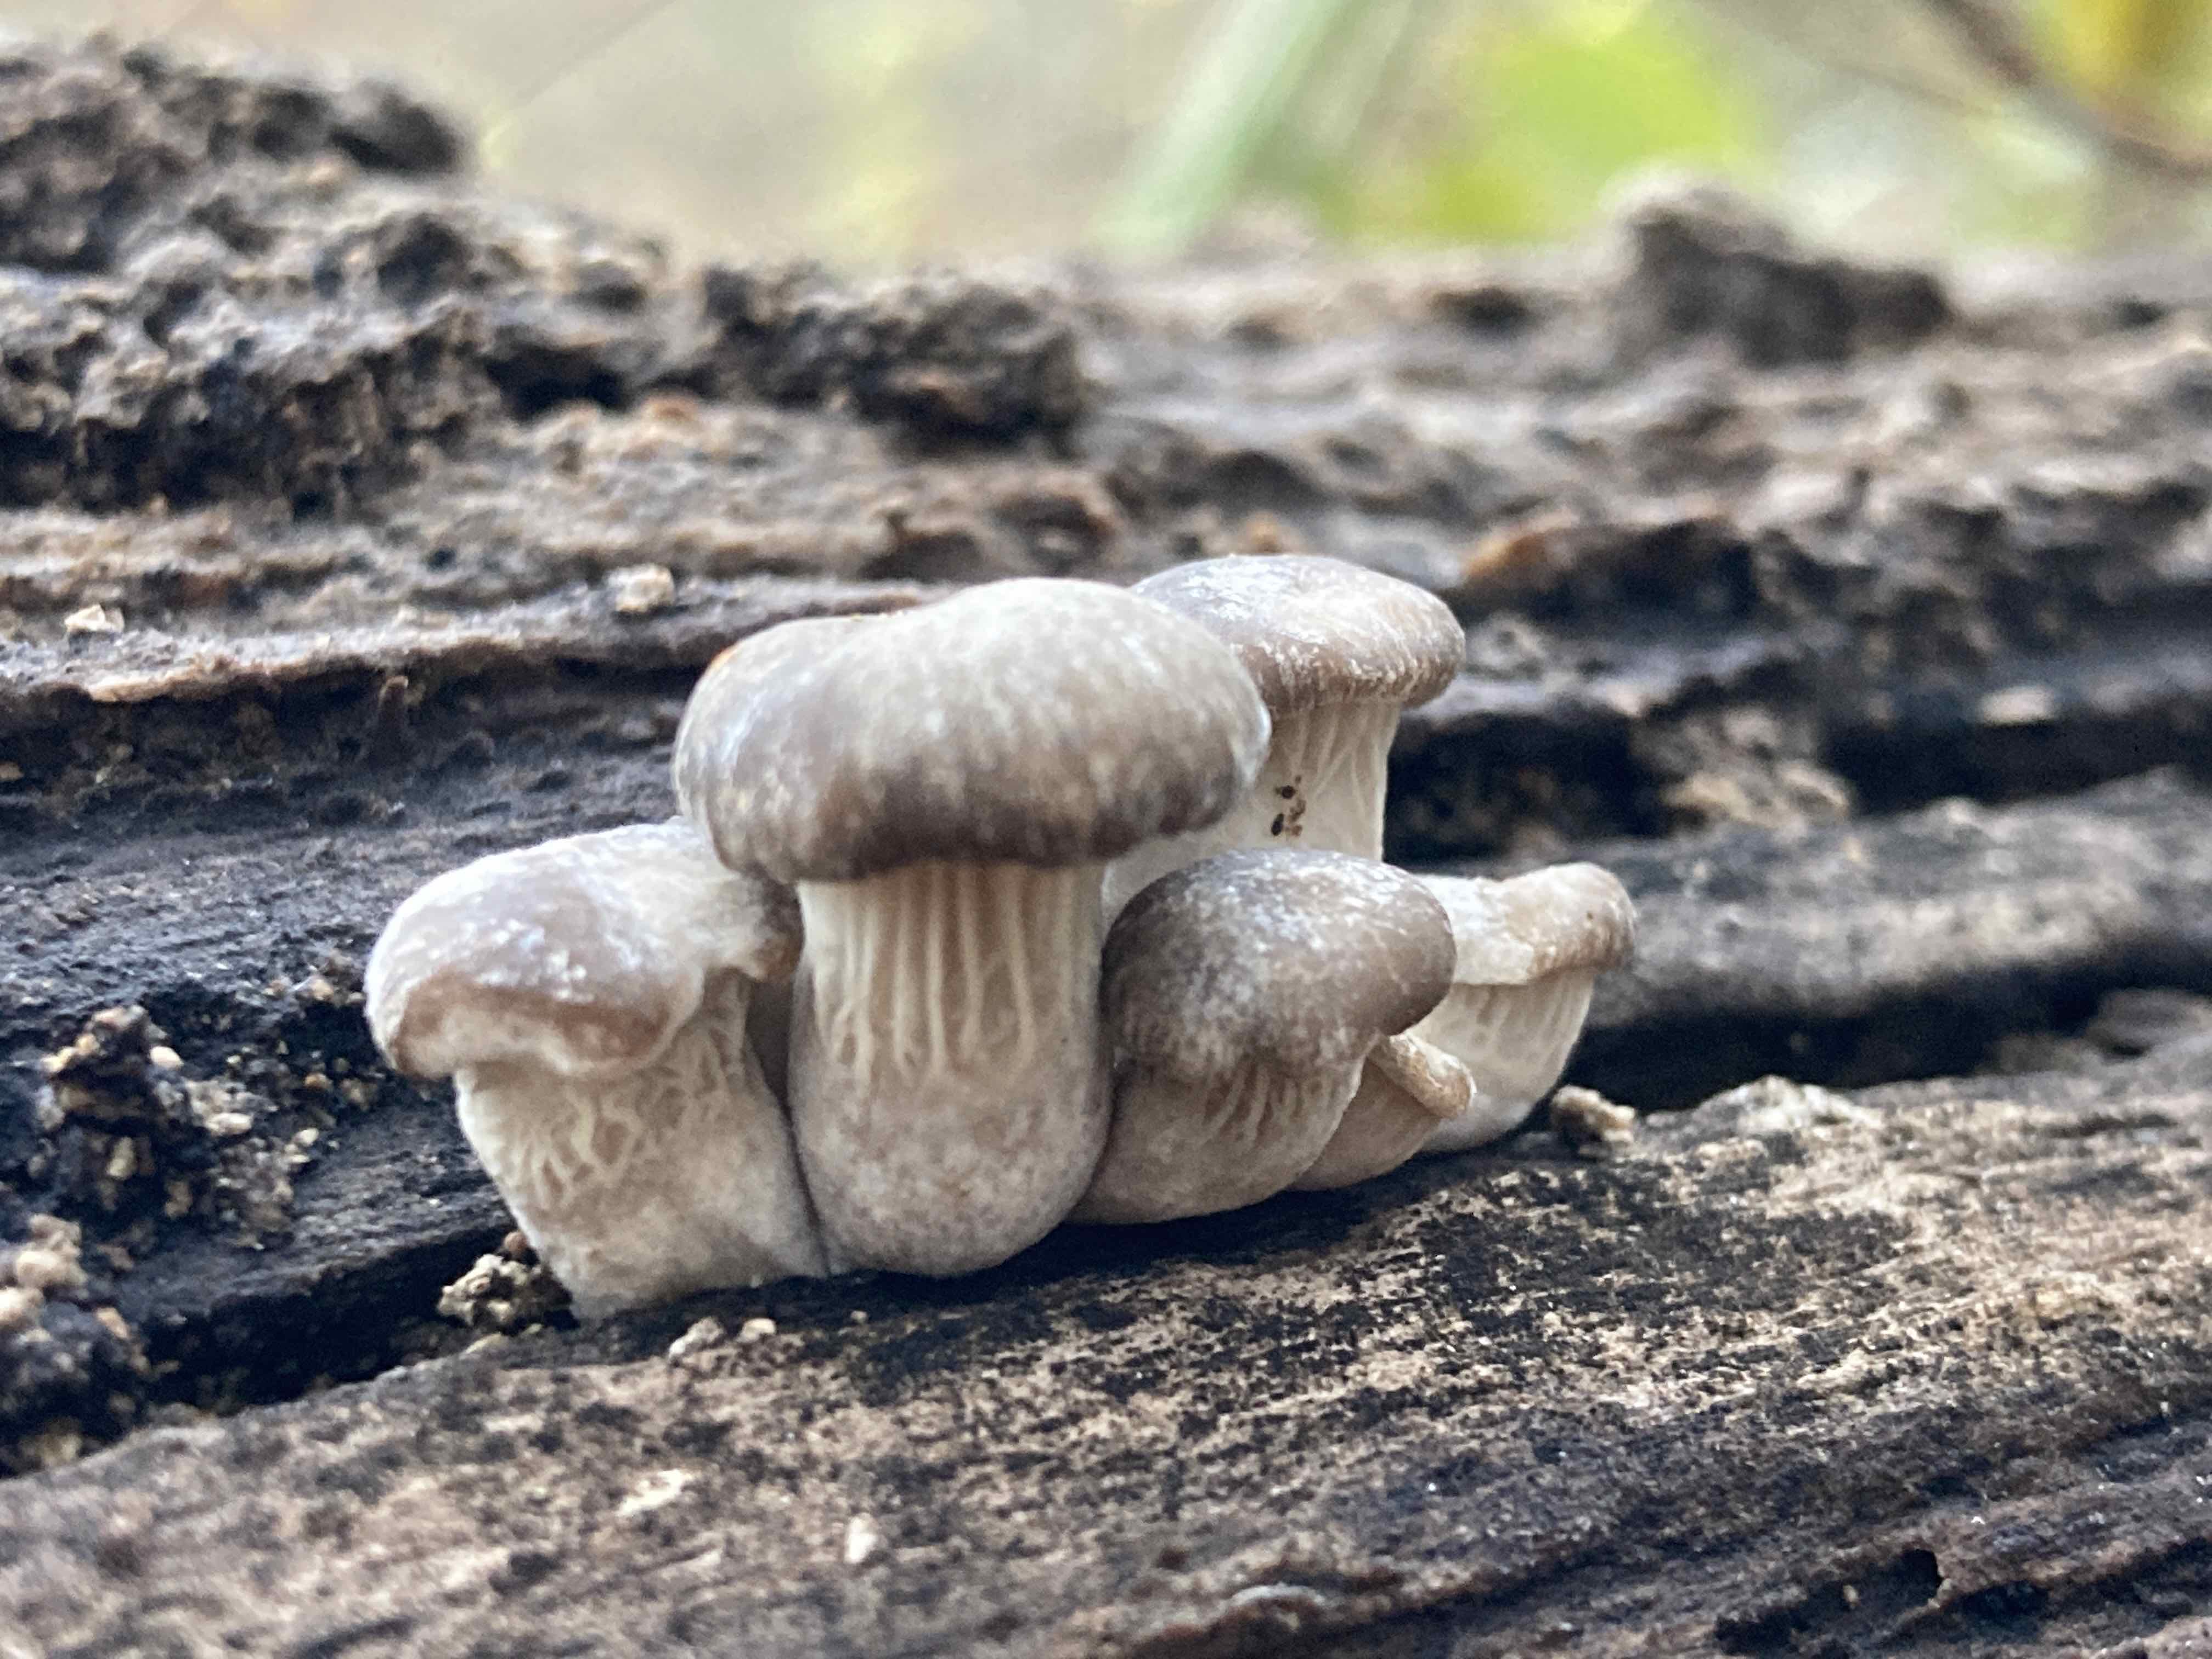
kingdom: Fungi
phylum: Basidiomycota
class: Agaricomycetes
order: Agaricales
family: Pleurotaceae
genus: Pleurotus
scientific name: Pleurotus ostreatus
